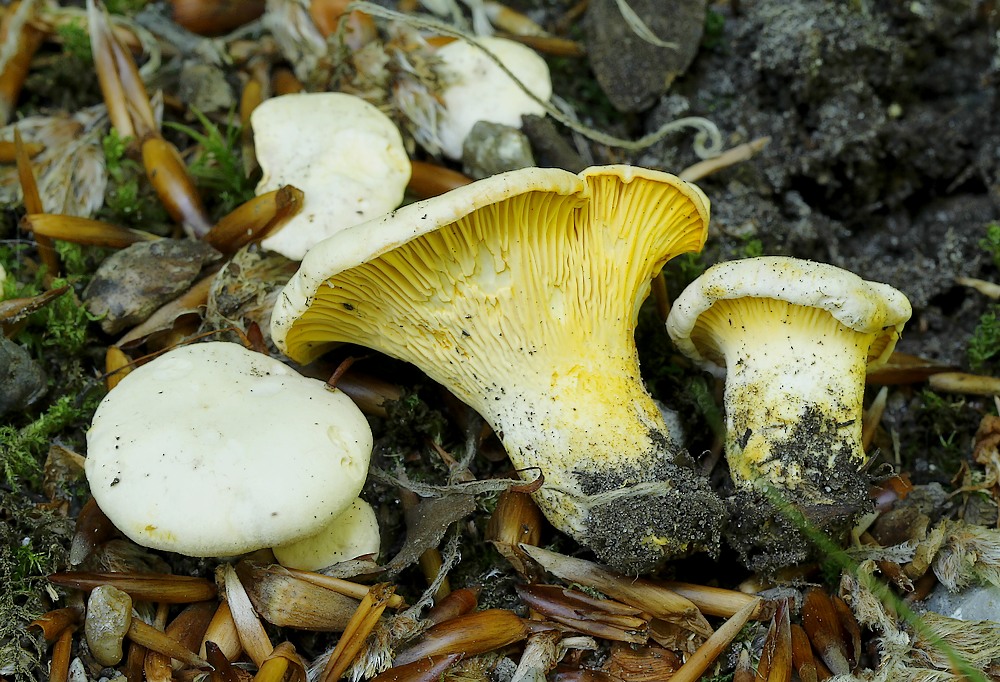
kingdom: Fungi
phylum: Basidiomycota
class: Agaricomycetes
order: Cantharellales
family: Hydnaceae
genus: Cantharellus
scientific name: Cantharellus pallens
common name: bleg kantarel
